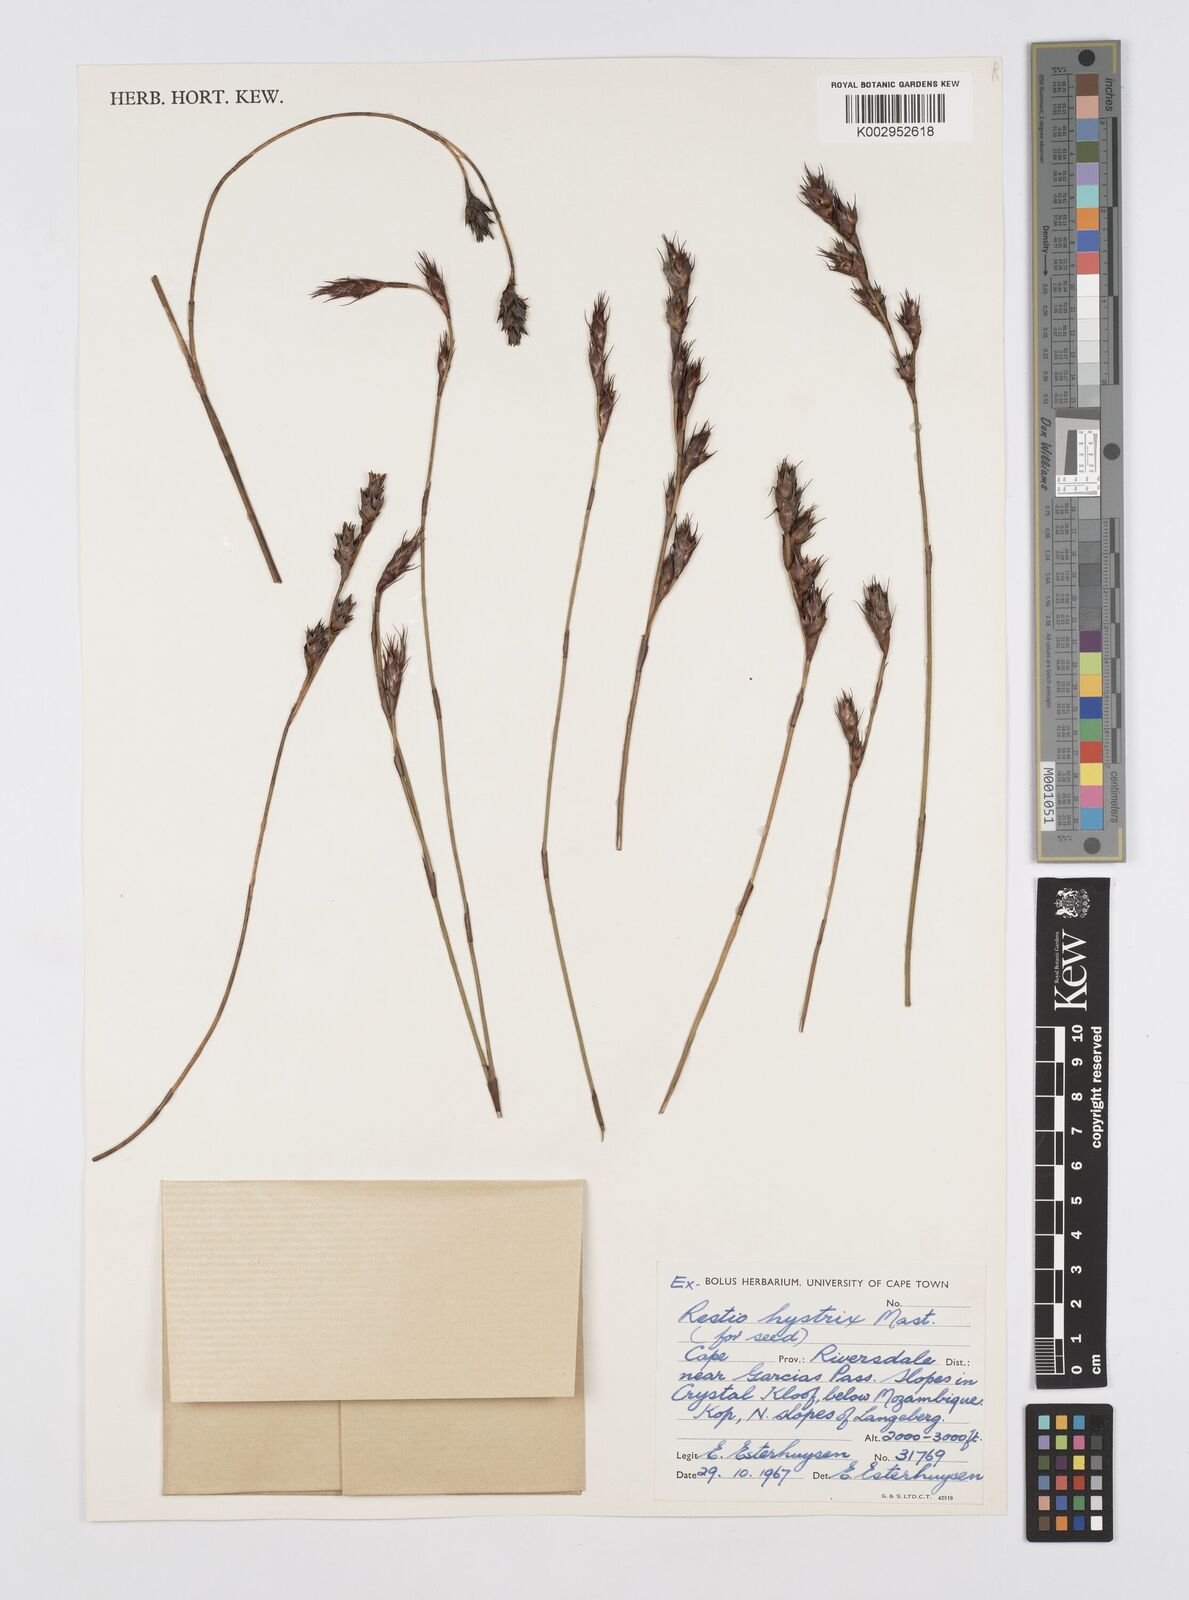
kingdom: Plantae
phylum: Tracheophyta
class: Liliopsida
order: Poales
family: Restionaceae
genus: Restio
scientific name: Restio hystrix
